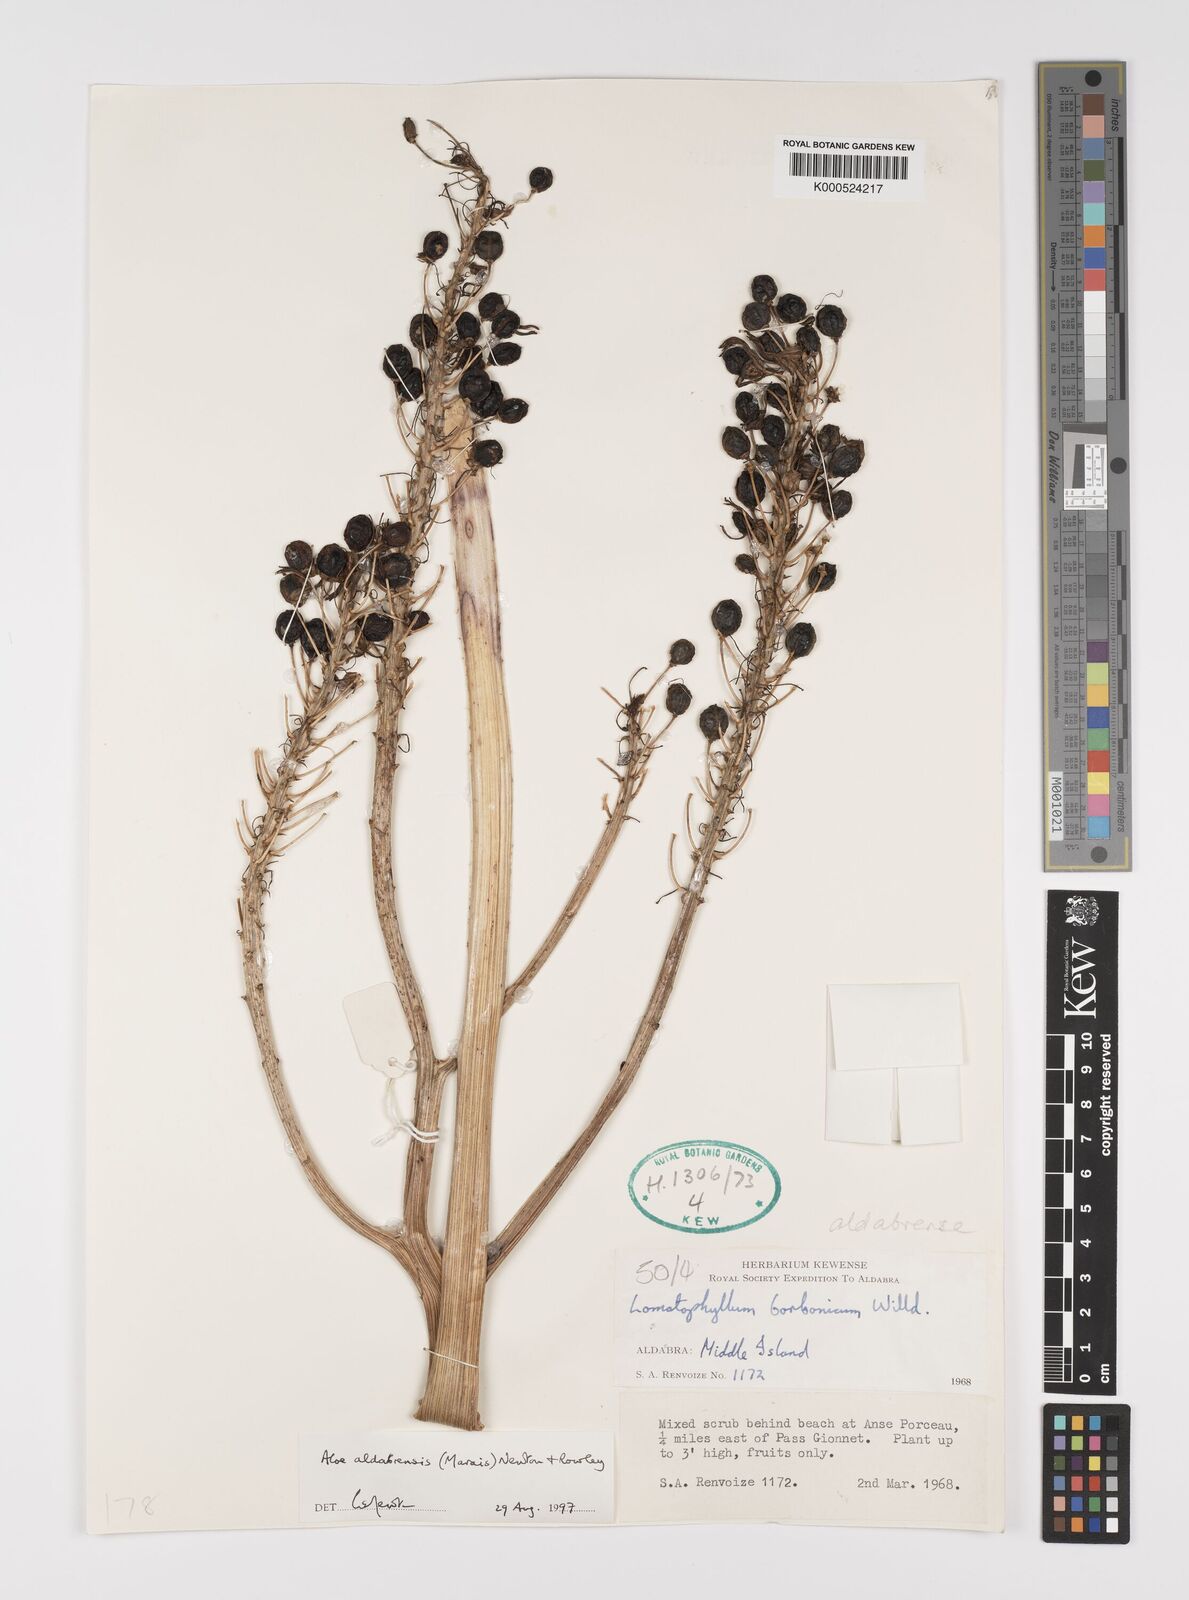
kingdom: Plantae
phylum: Tracheophyta
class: Liliopsida
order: Asparagales
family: Asphodelaceae
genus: Aloe
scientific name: Aloe aldabrensis
